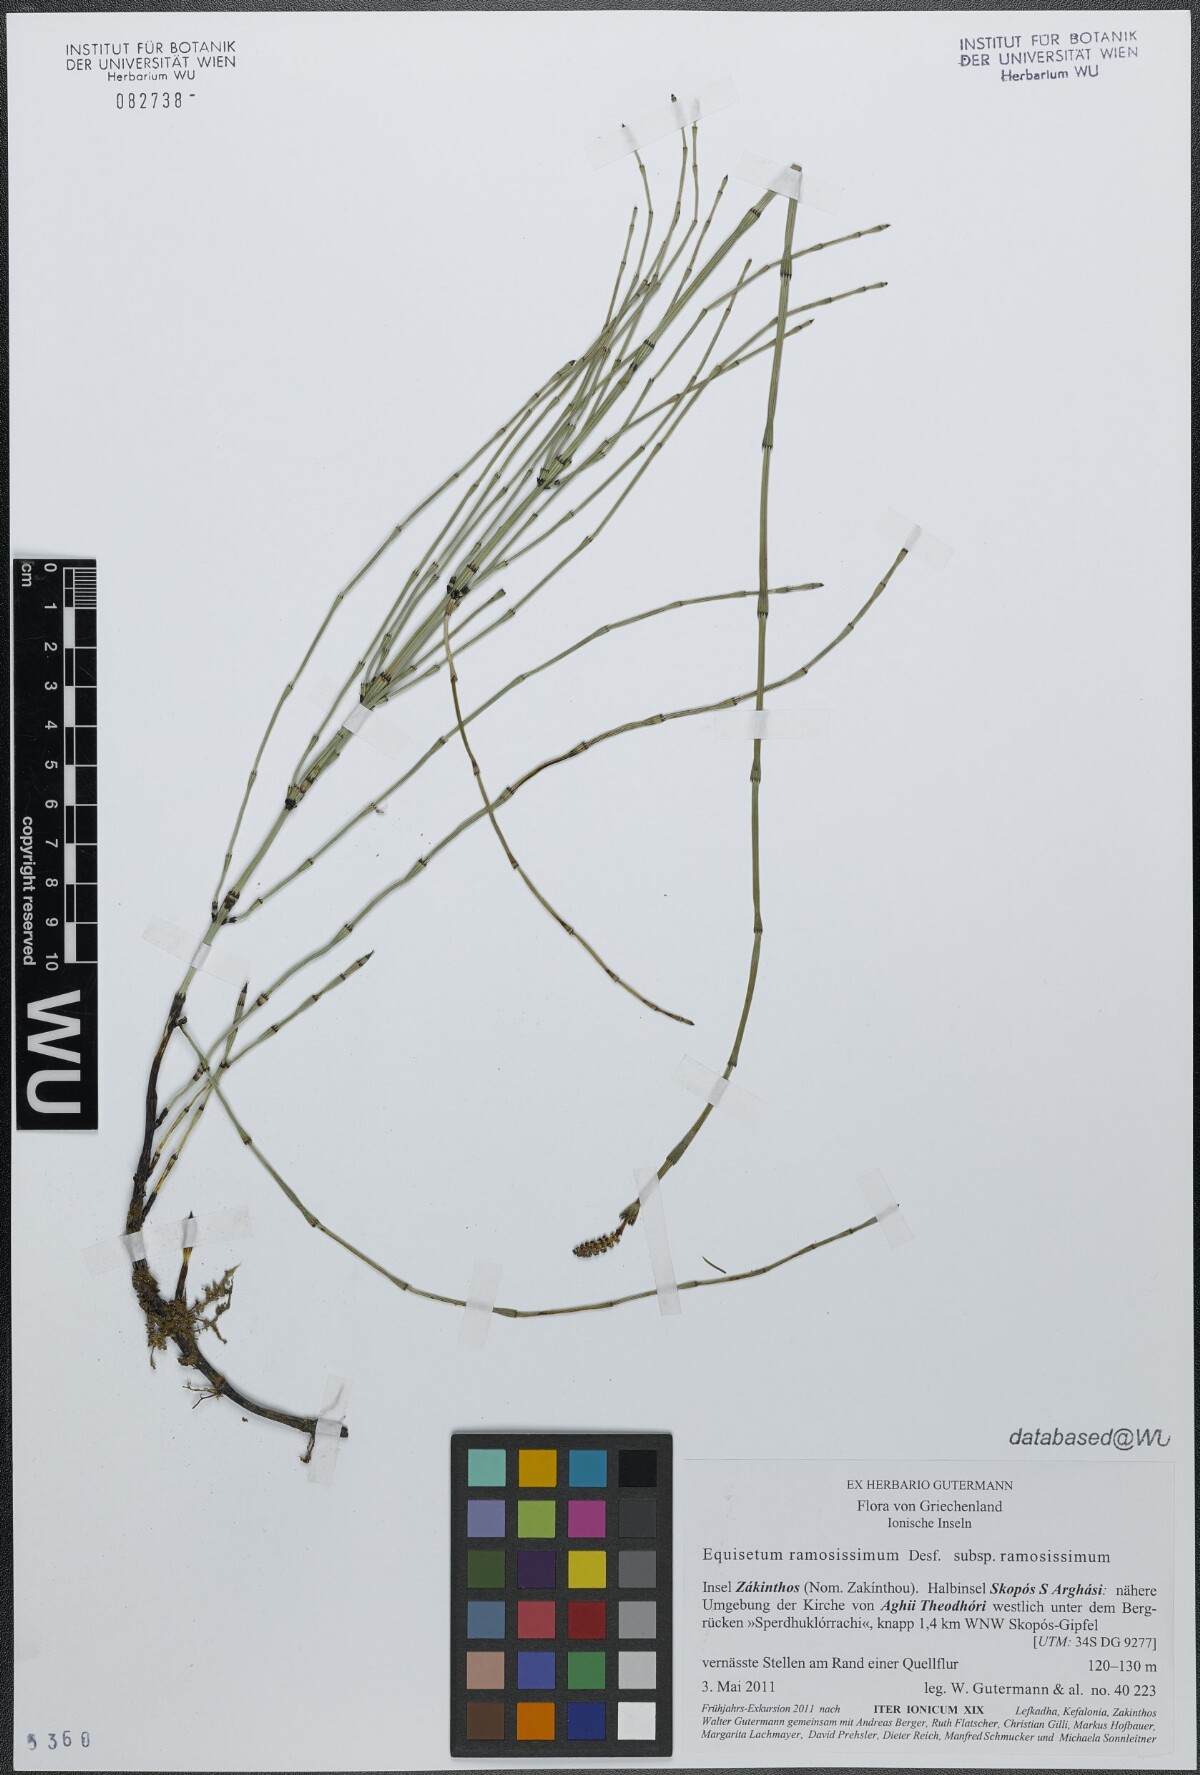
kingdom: Plantae
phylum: Tracheophyta
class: Polypodiopsida
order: Equisetales
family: Equisetaceae
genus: Equisetum
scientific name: Equisetum ramosissimum
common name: Branched horsetail
